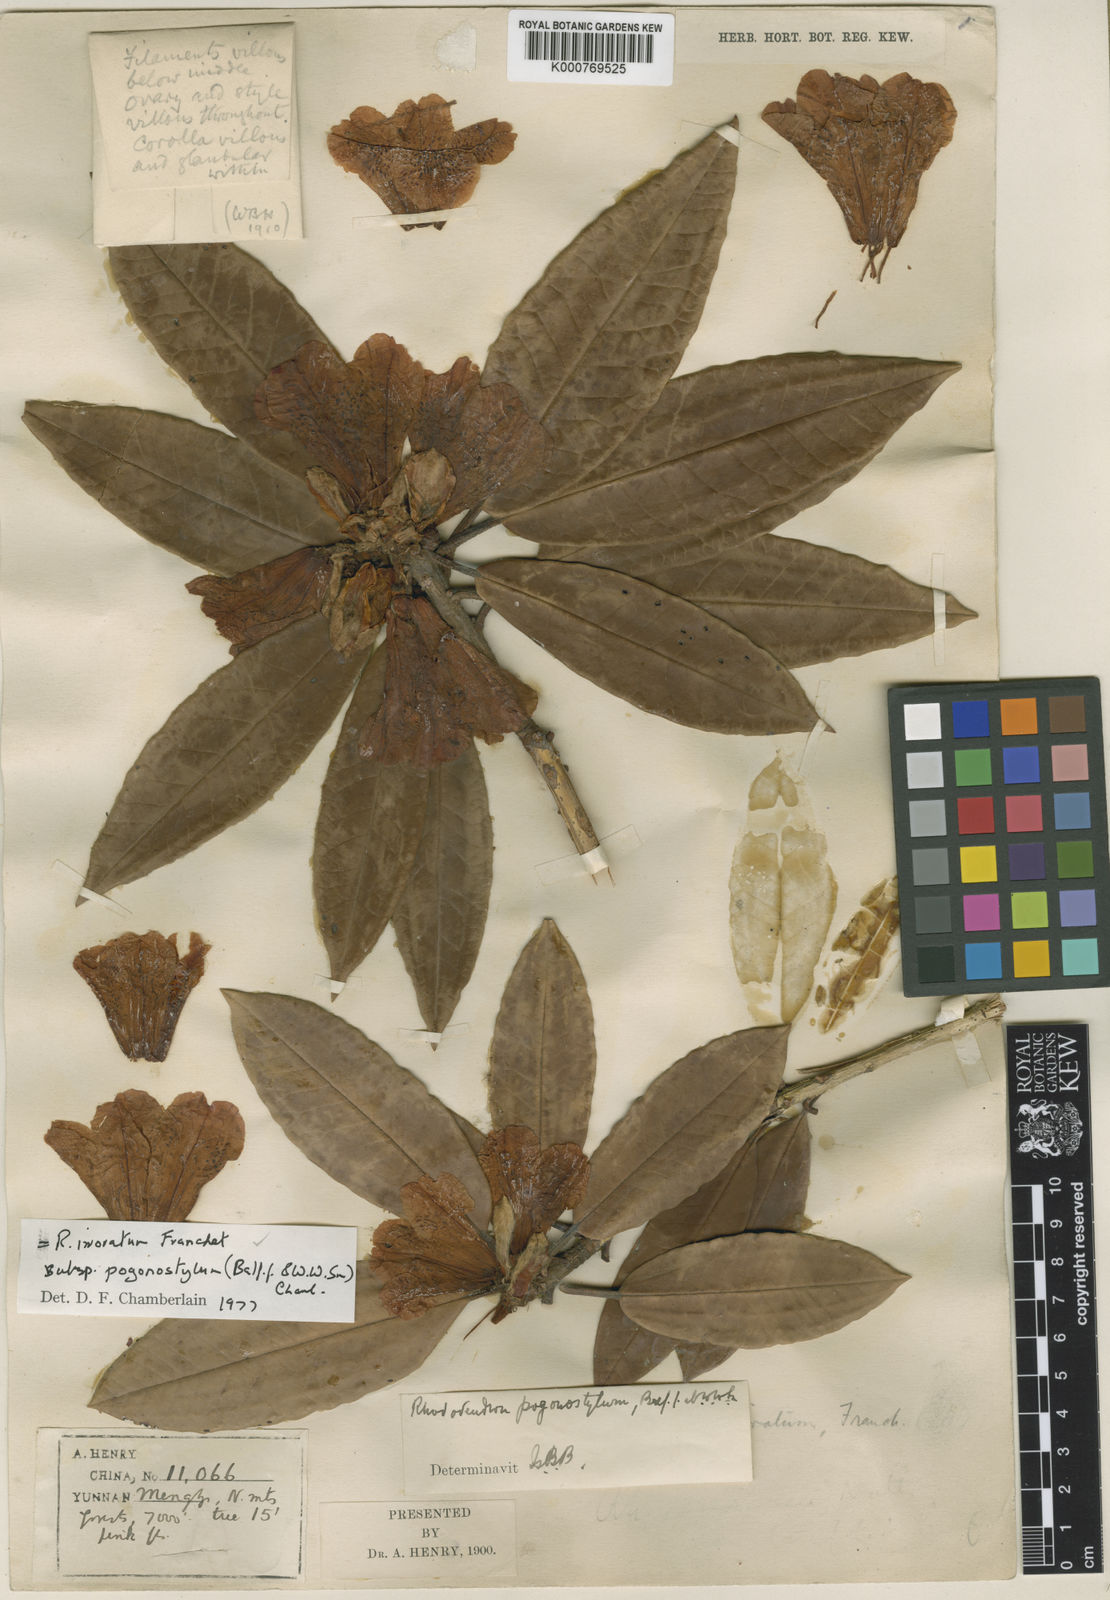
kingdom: Plantae
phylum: Tracheophyta
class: Magnoliopsida
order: Ericales
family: Ericaceae
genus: Rhododendron
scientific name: Rhododendron irroratum
